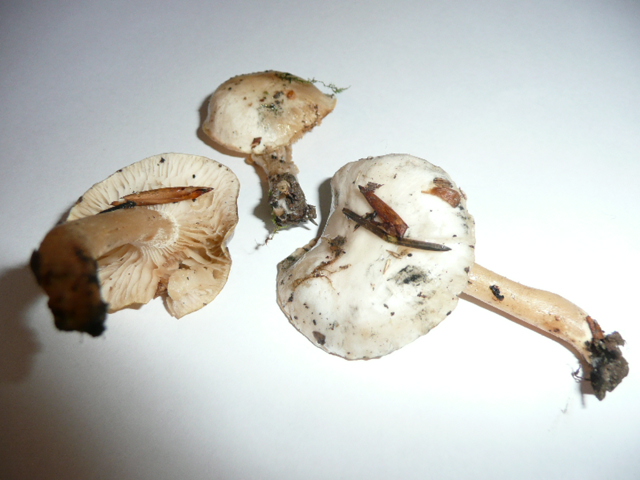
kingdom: Fungi
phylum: Basidiomycota
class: Agaricomycetes
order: Agaricales
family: Hygrophoraceae
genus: Hygrophorus
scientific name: Hygrophorus eburneus
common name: elfenbens-sneglehat
